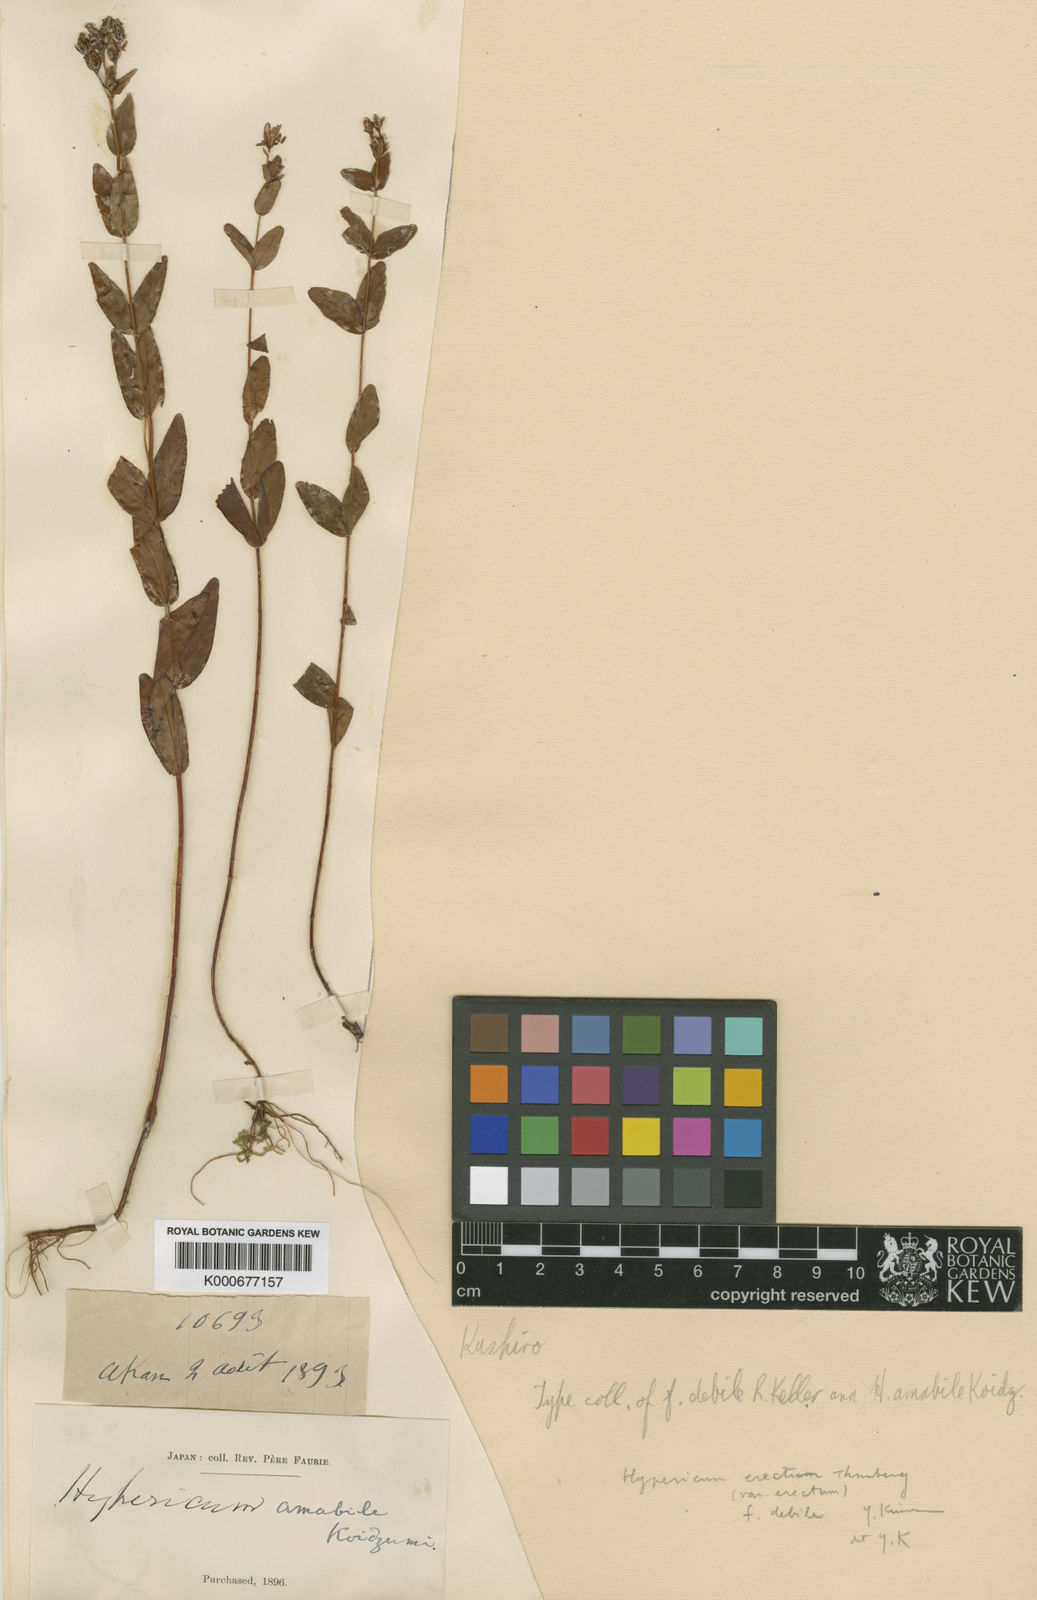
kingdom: Plantae
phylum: Tracheophyta
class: Magnoliopsida
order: Malpighiales
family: Hypericaceae
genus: Hypericum
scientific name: Hypericum erectum
